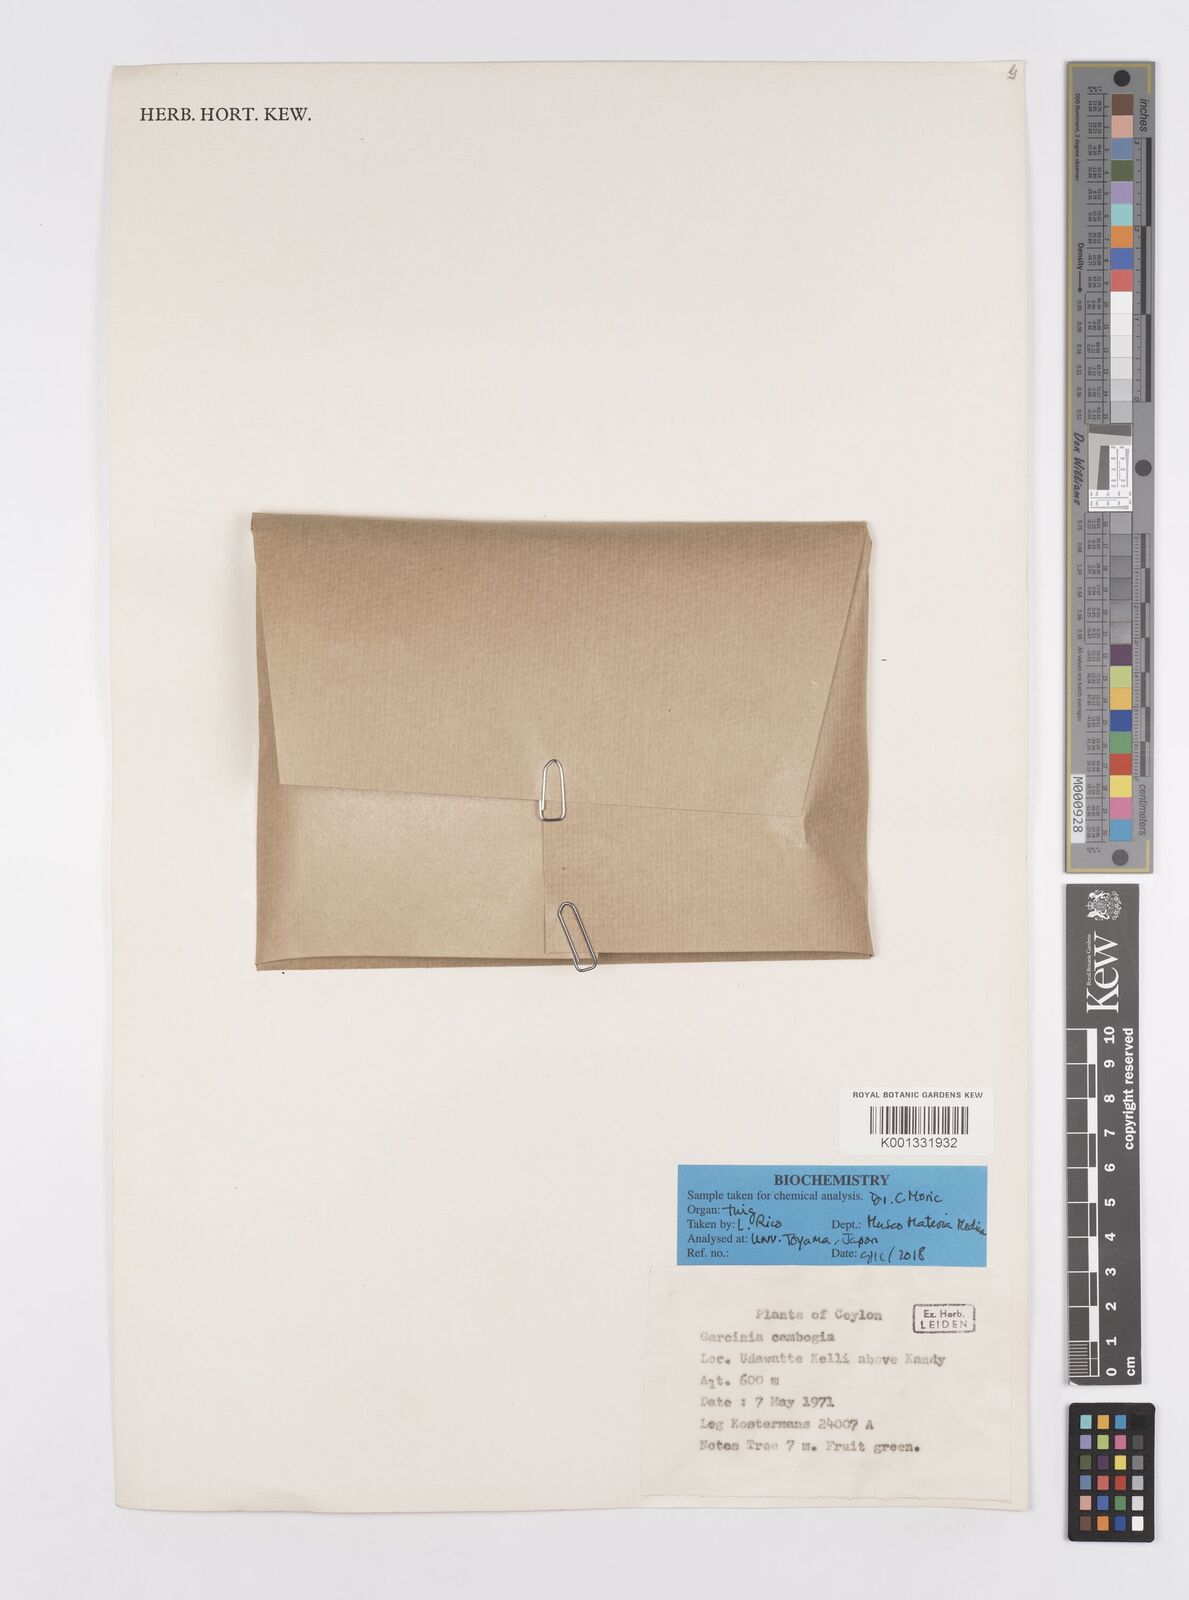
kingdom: Plantae
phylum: Tracheophyta
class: Magnoliopsida
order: Malpighiales
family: Clusiaceae
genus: Garcinia
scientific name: Garcinia gummi-gutta
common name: Malabar tamarind
